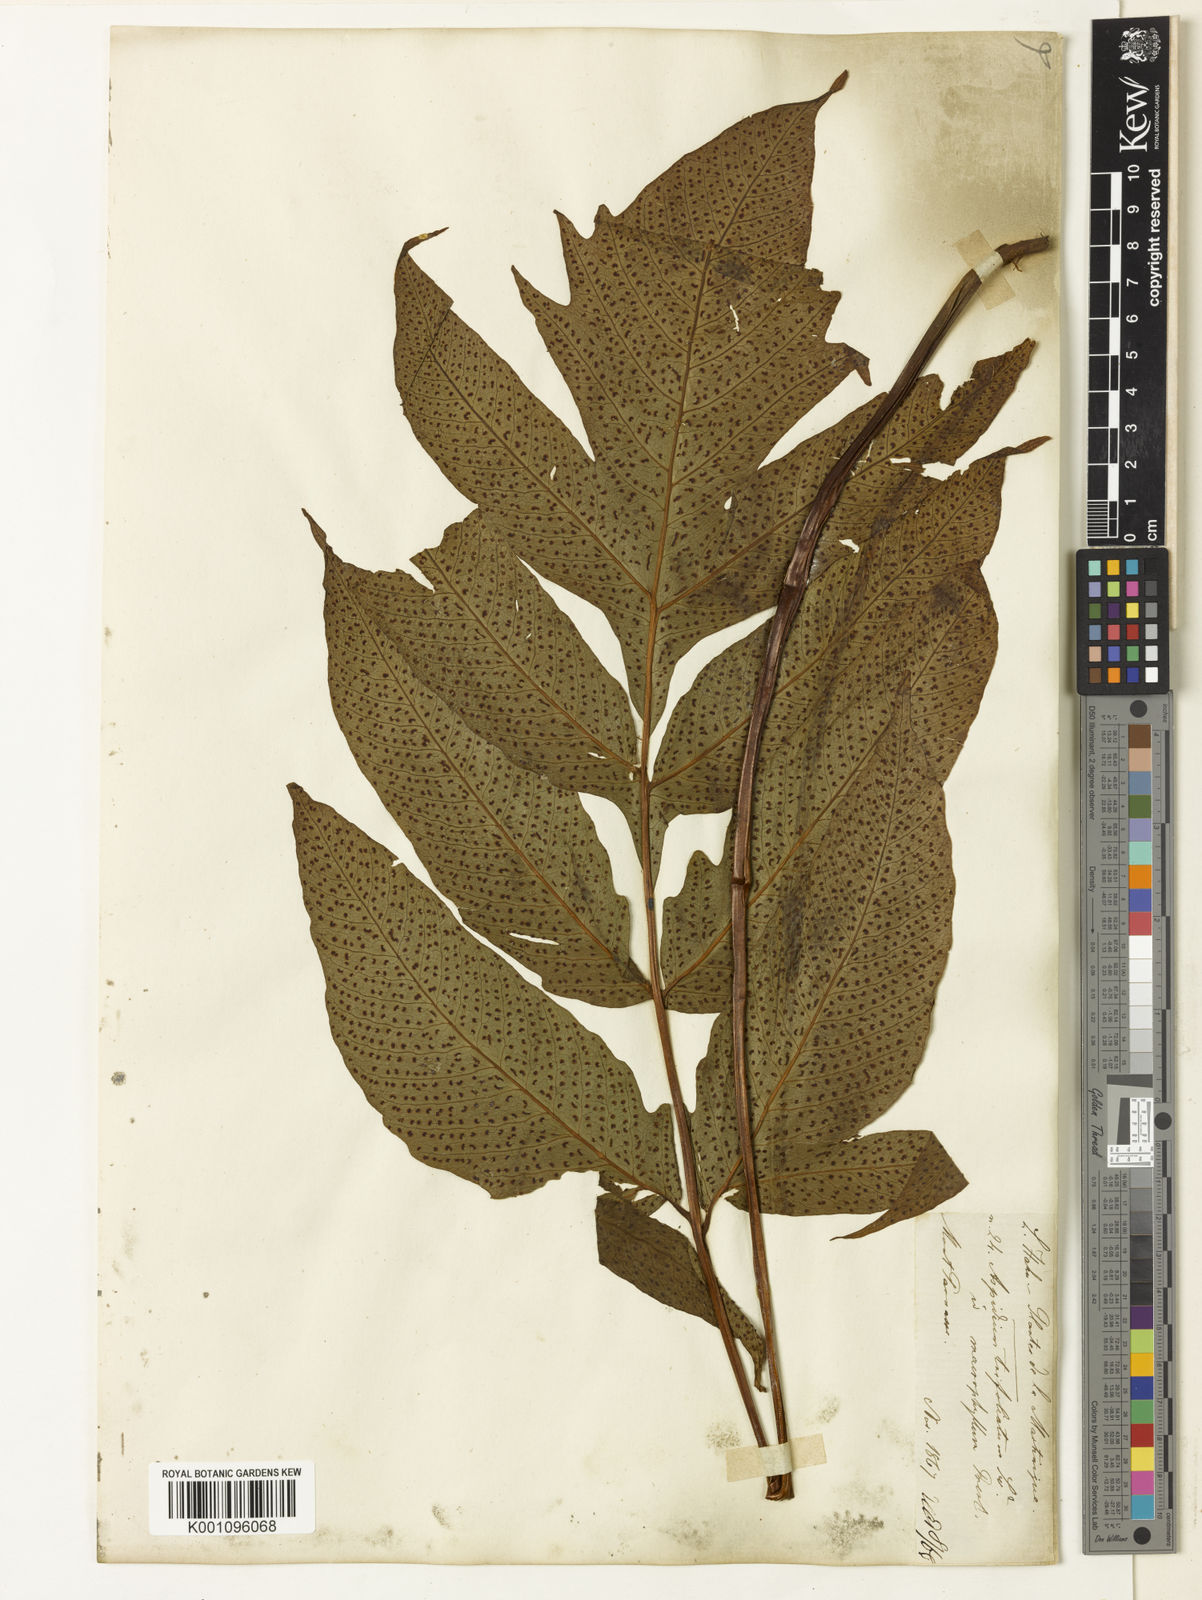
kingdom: Plantae
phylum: Tracheophyta
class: Polypodiopsida
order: Polypodiales
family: Tectariaceae
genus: Tectaria
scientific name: Tectaria incisa
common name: Incised halberd fern
